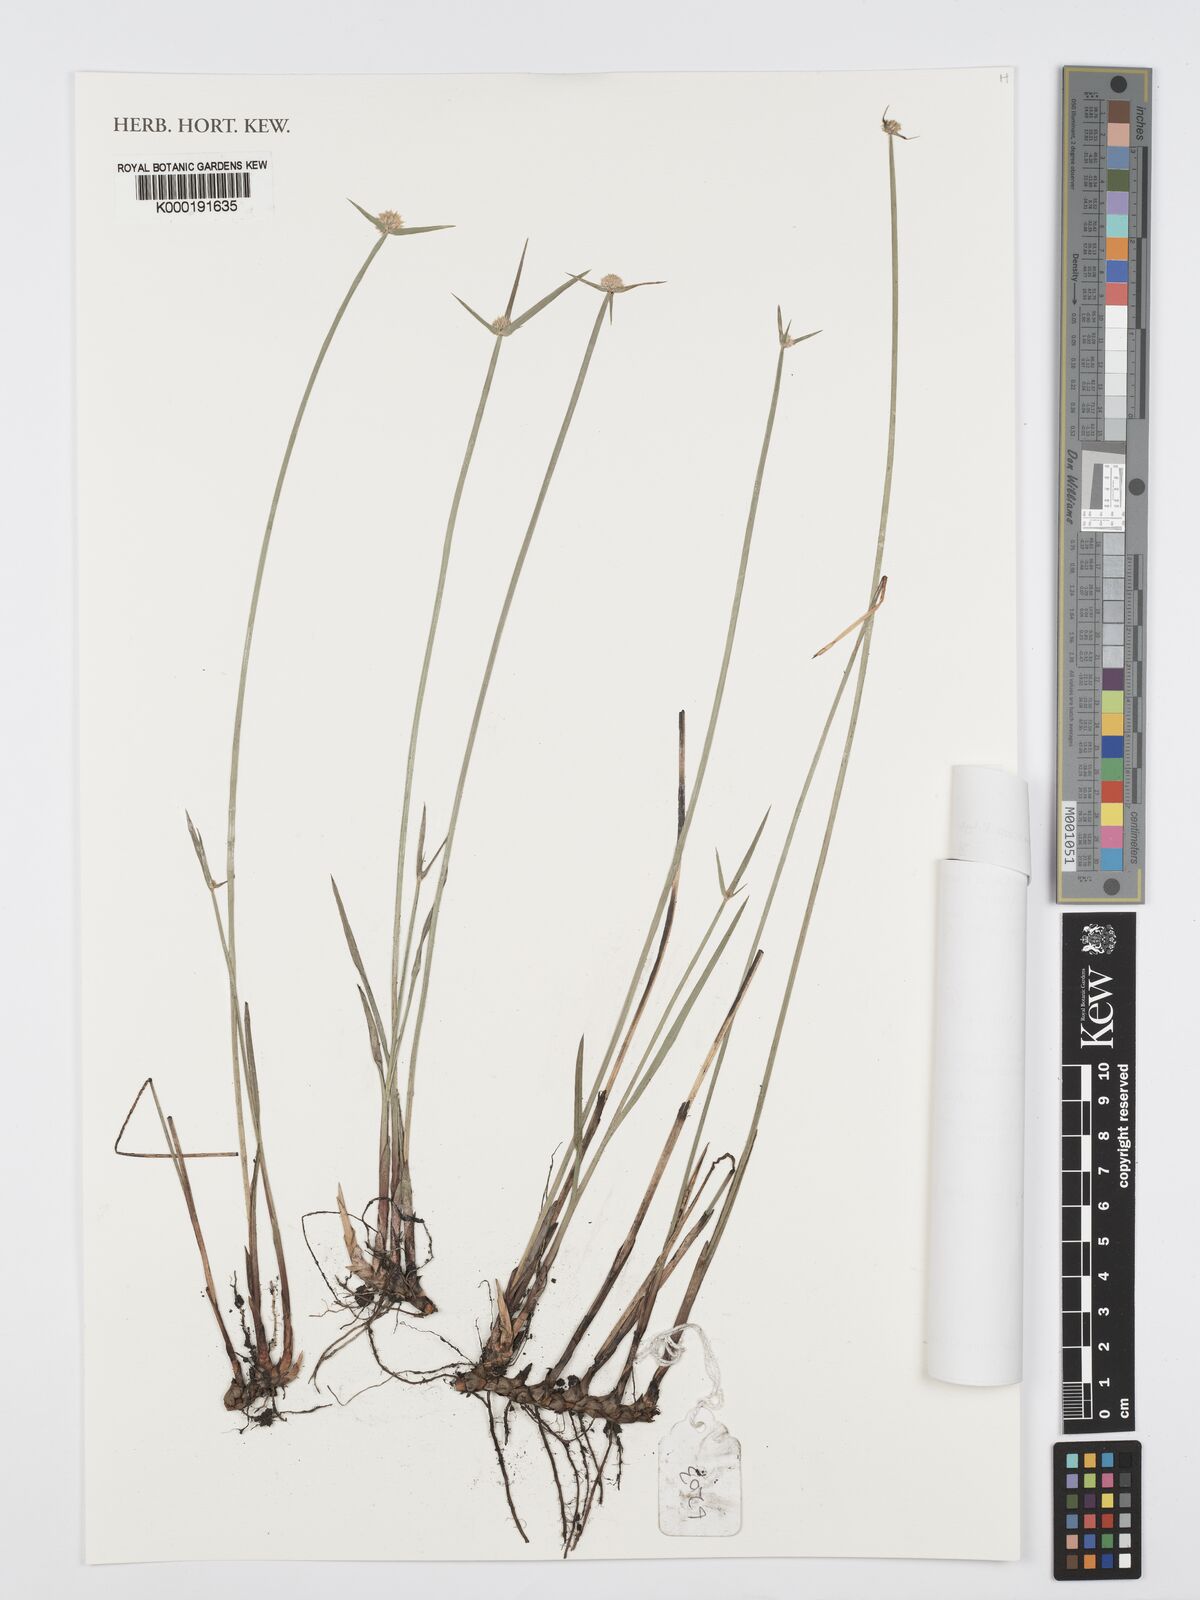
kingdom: Plantae
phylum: Tracheophyta
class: Liliopsida
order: Poales
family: Cyperaceae
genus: Cyperus
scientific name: Cyperus erectus
